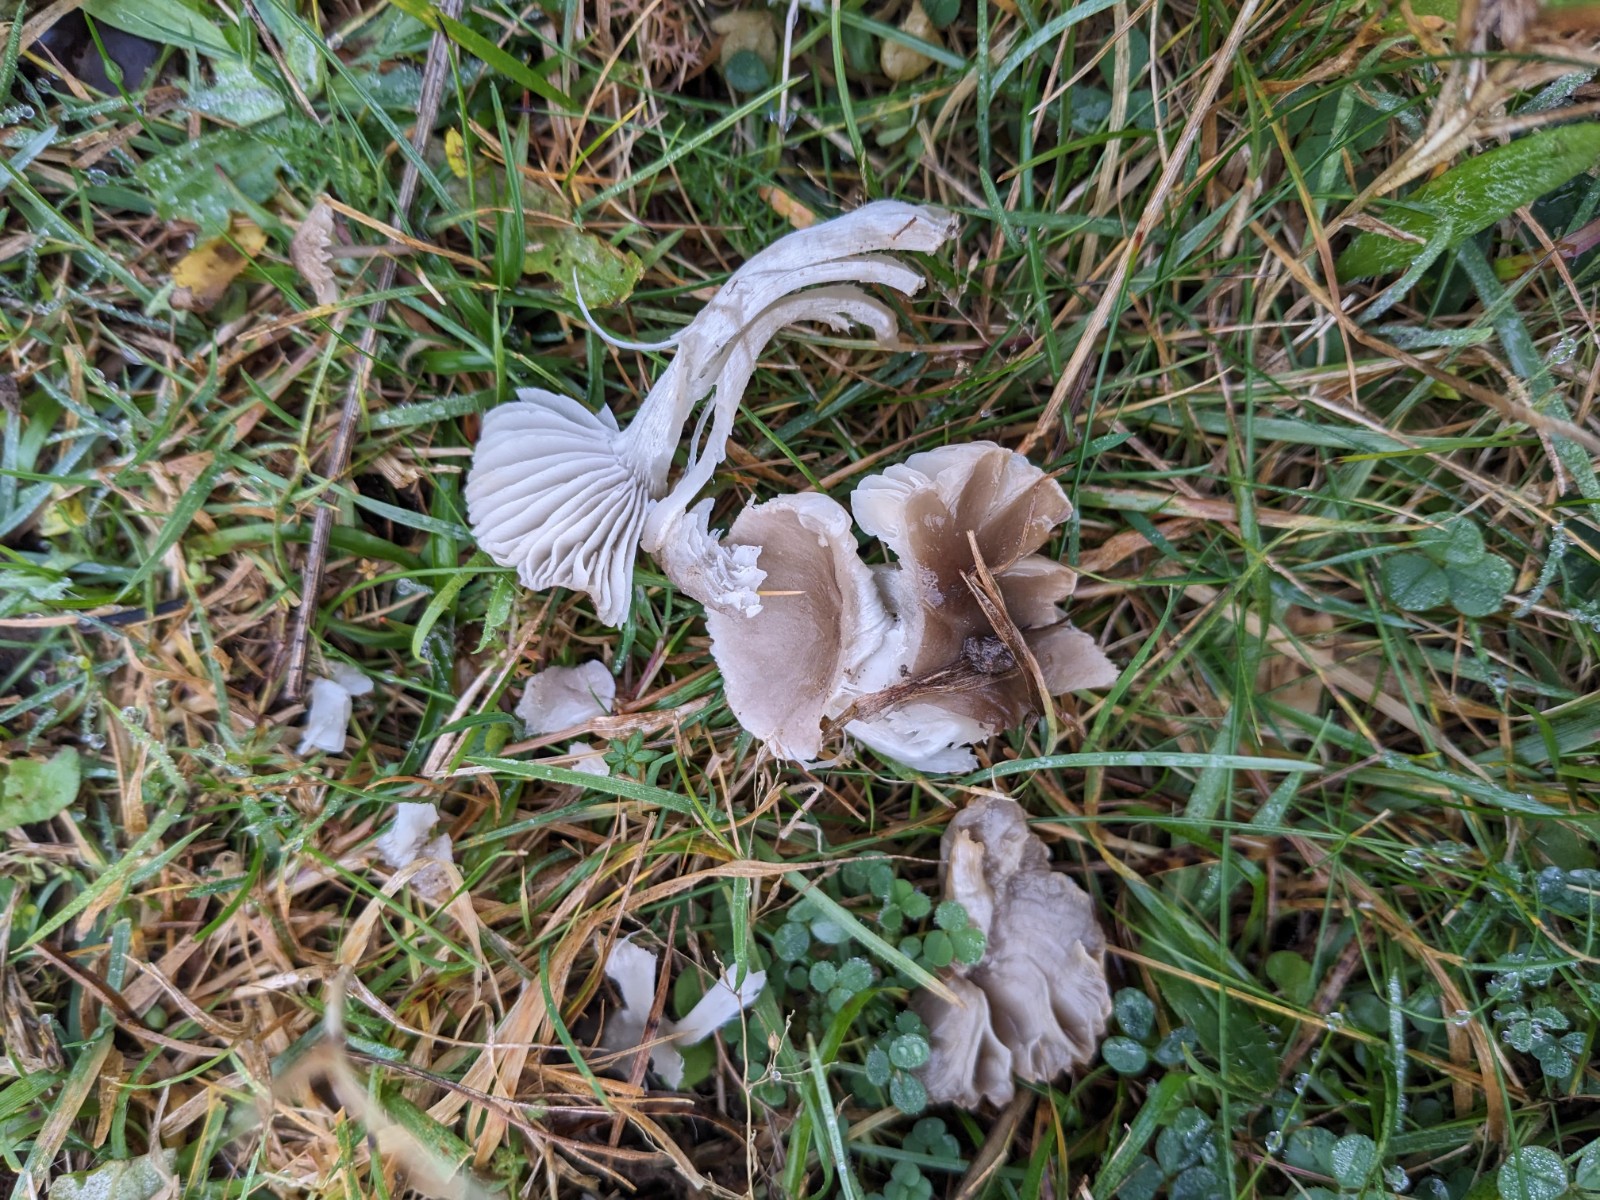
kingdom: Fungi
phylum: Basidiomycota
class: Agaricomycetes
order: Agaricales
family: Tricholomataceae
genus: Dermoloma
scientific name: Dermoloma cuneifolium
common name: eng-nonnehat
